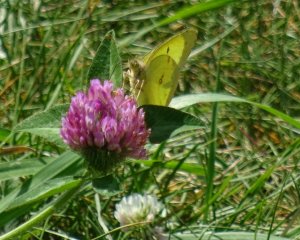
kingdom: Animalia
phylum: Arthropoda
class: Insecta
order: Lepidoptera
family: Pieridae
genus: Colias
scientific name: Colias philodice
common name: Clouded Sulphur
